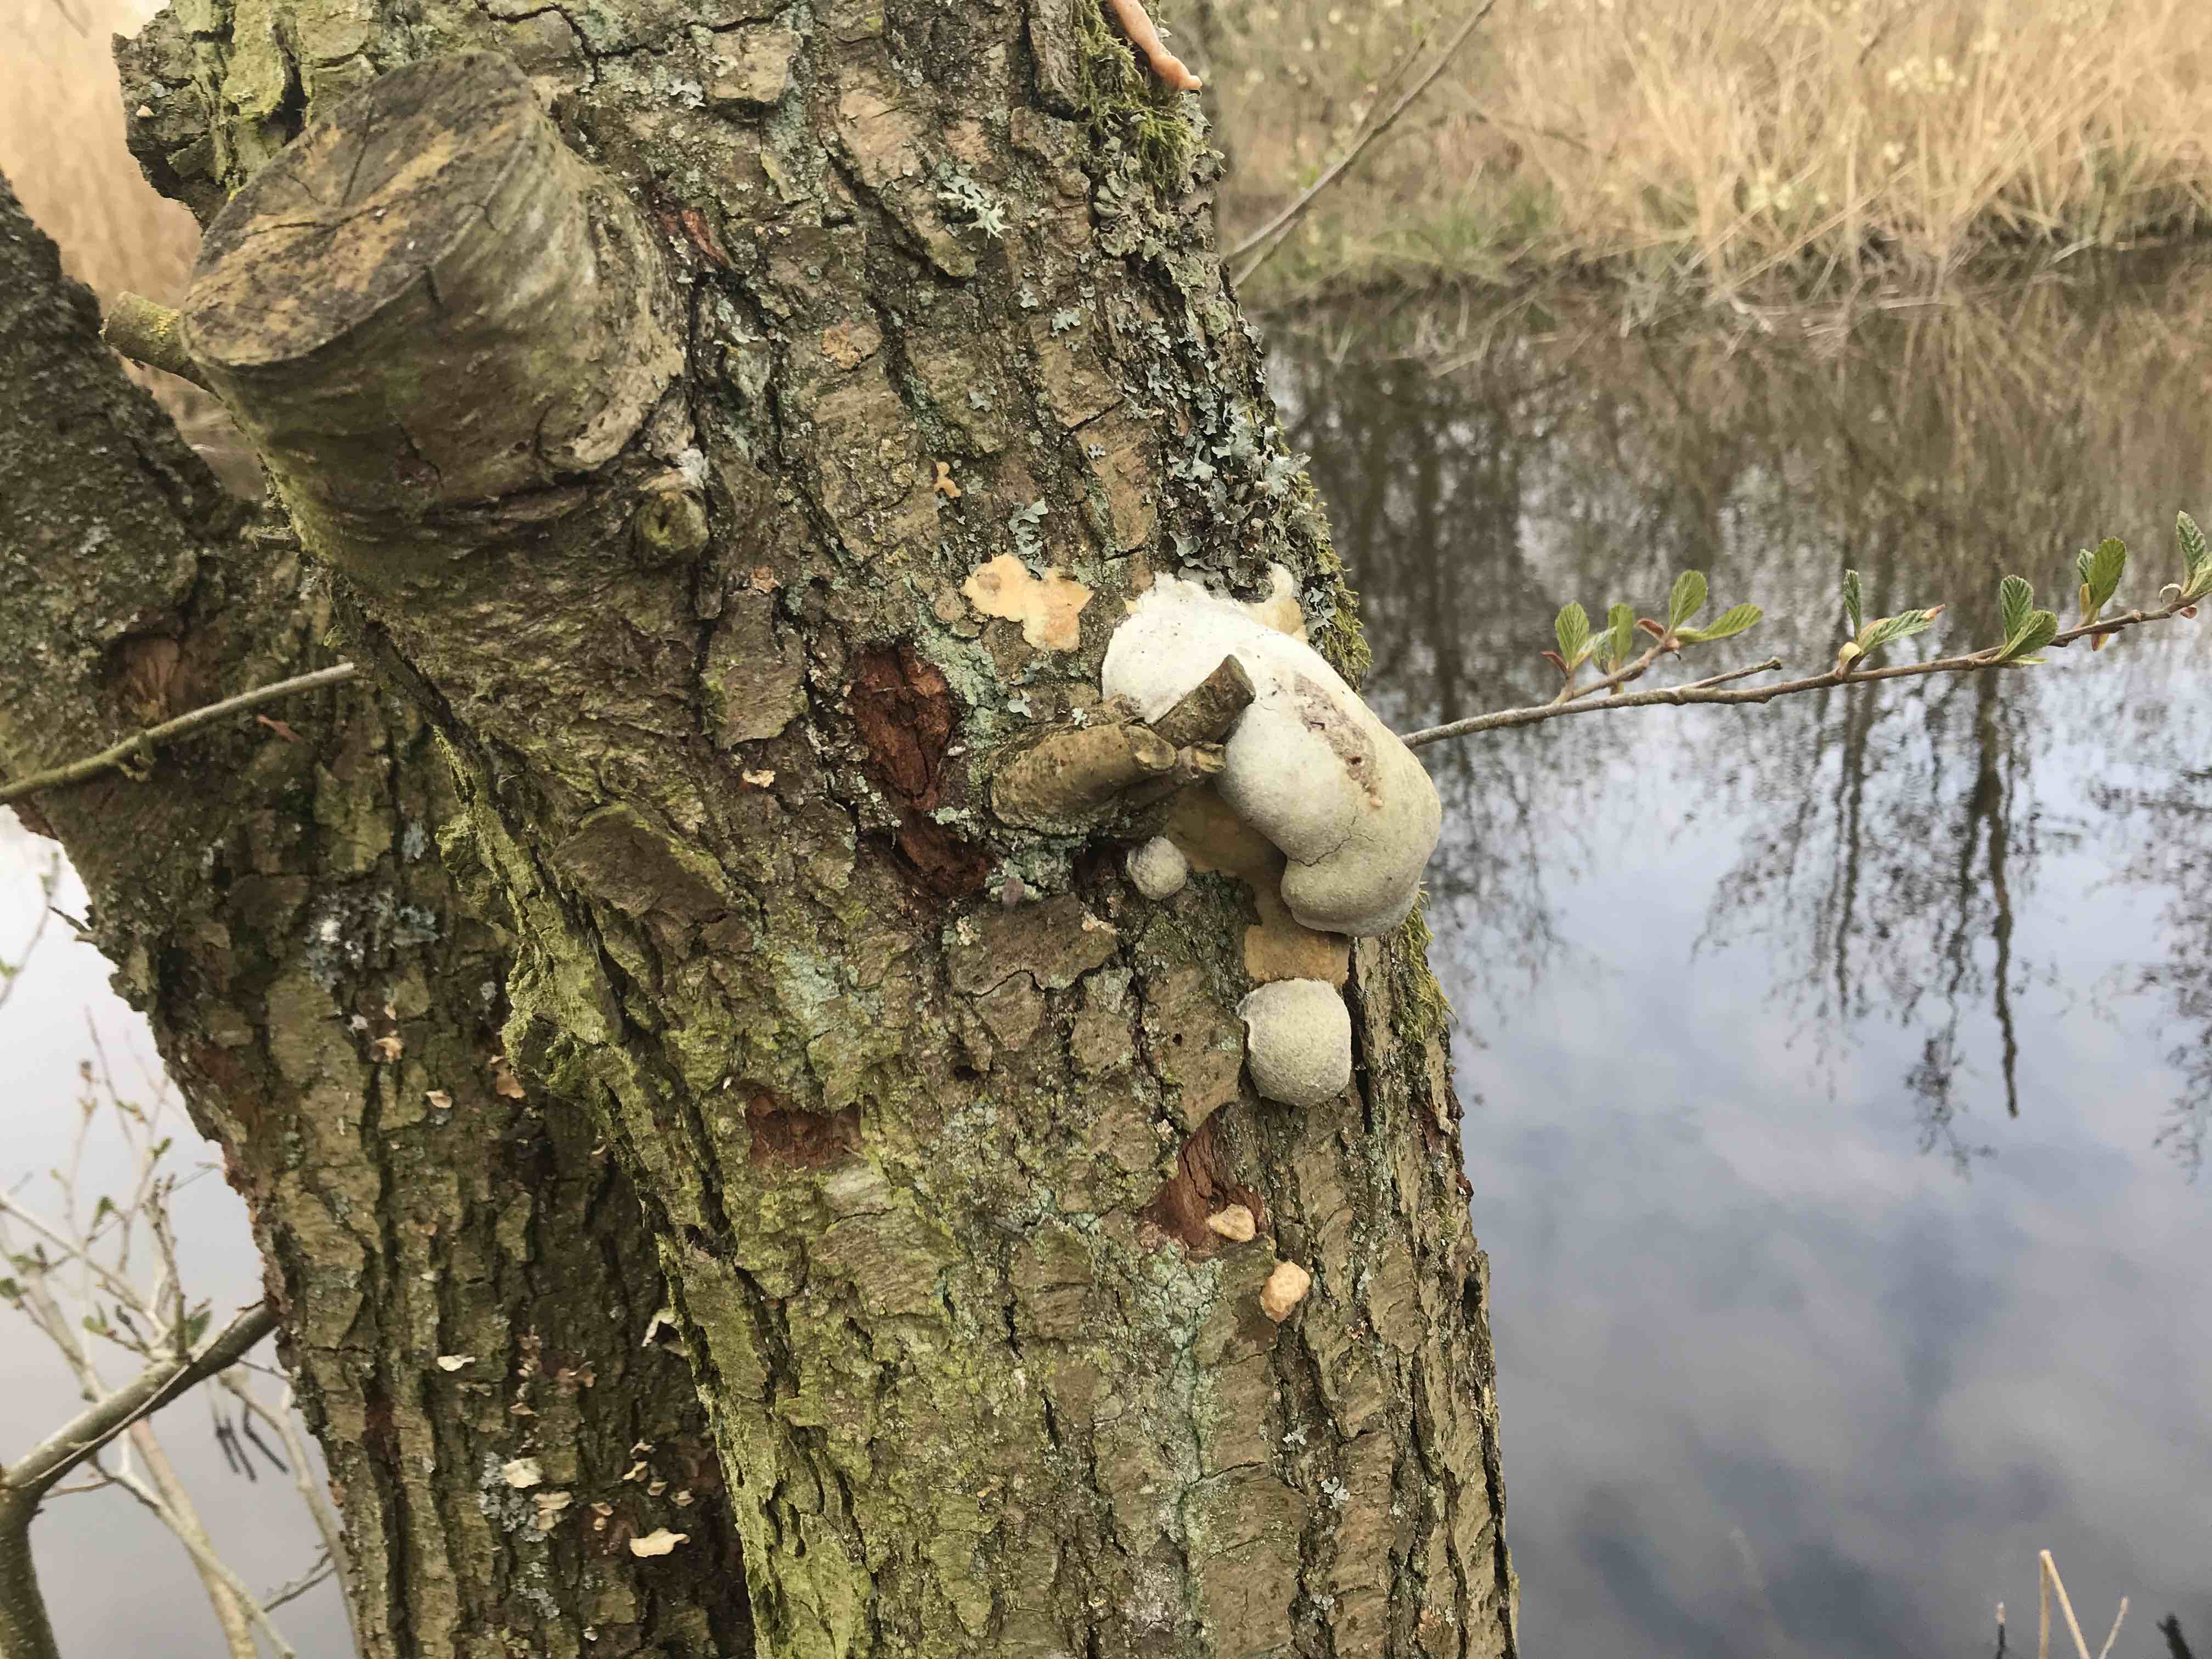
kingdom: Protozoa
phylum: Mycetozoa
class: Myxomycetes
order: Cribrariales
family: Tubiferaceae
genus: Reticularia
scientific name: Reticularia lycoperdon
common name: skinnende støvpude
